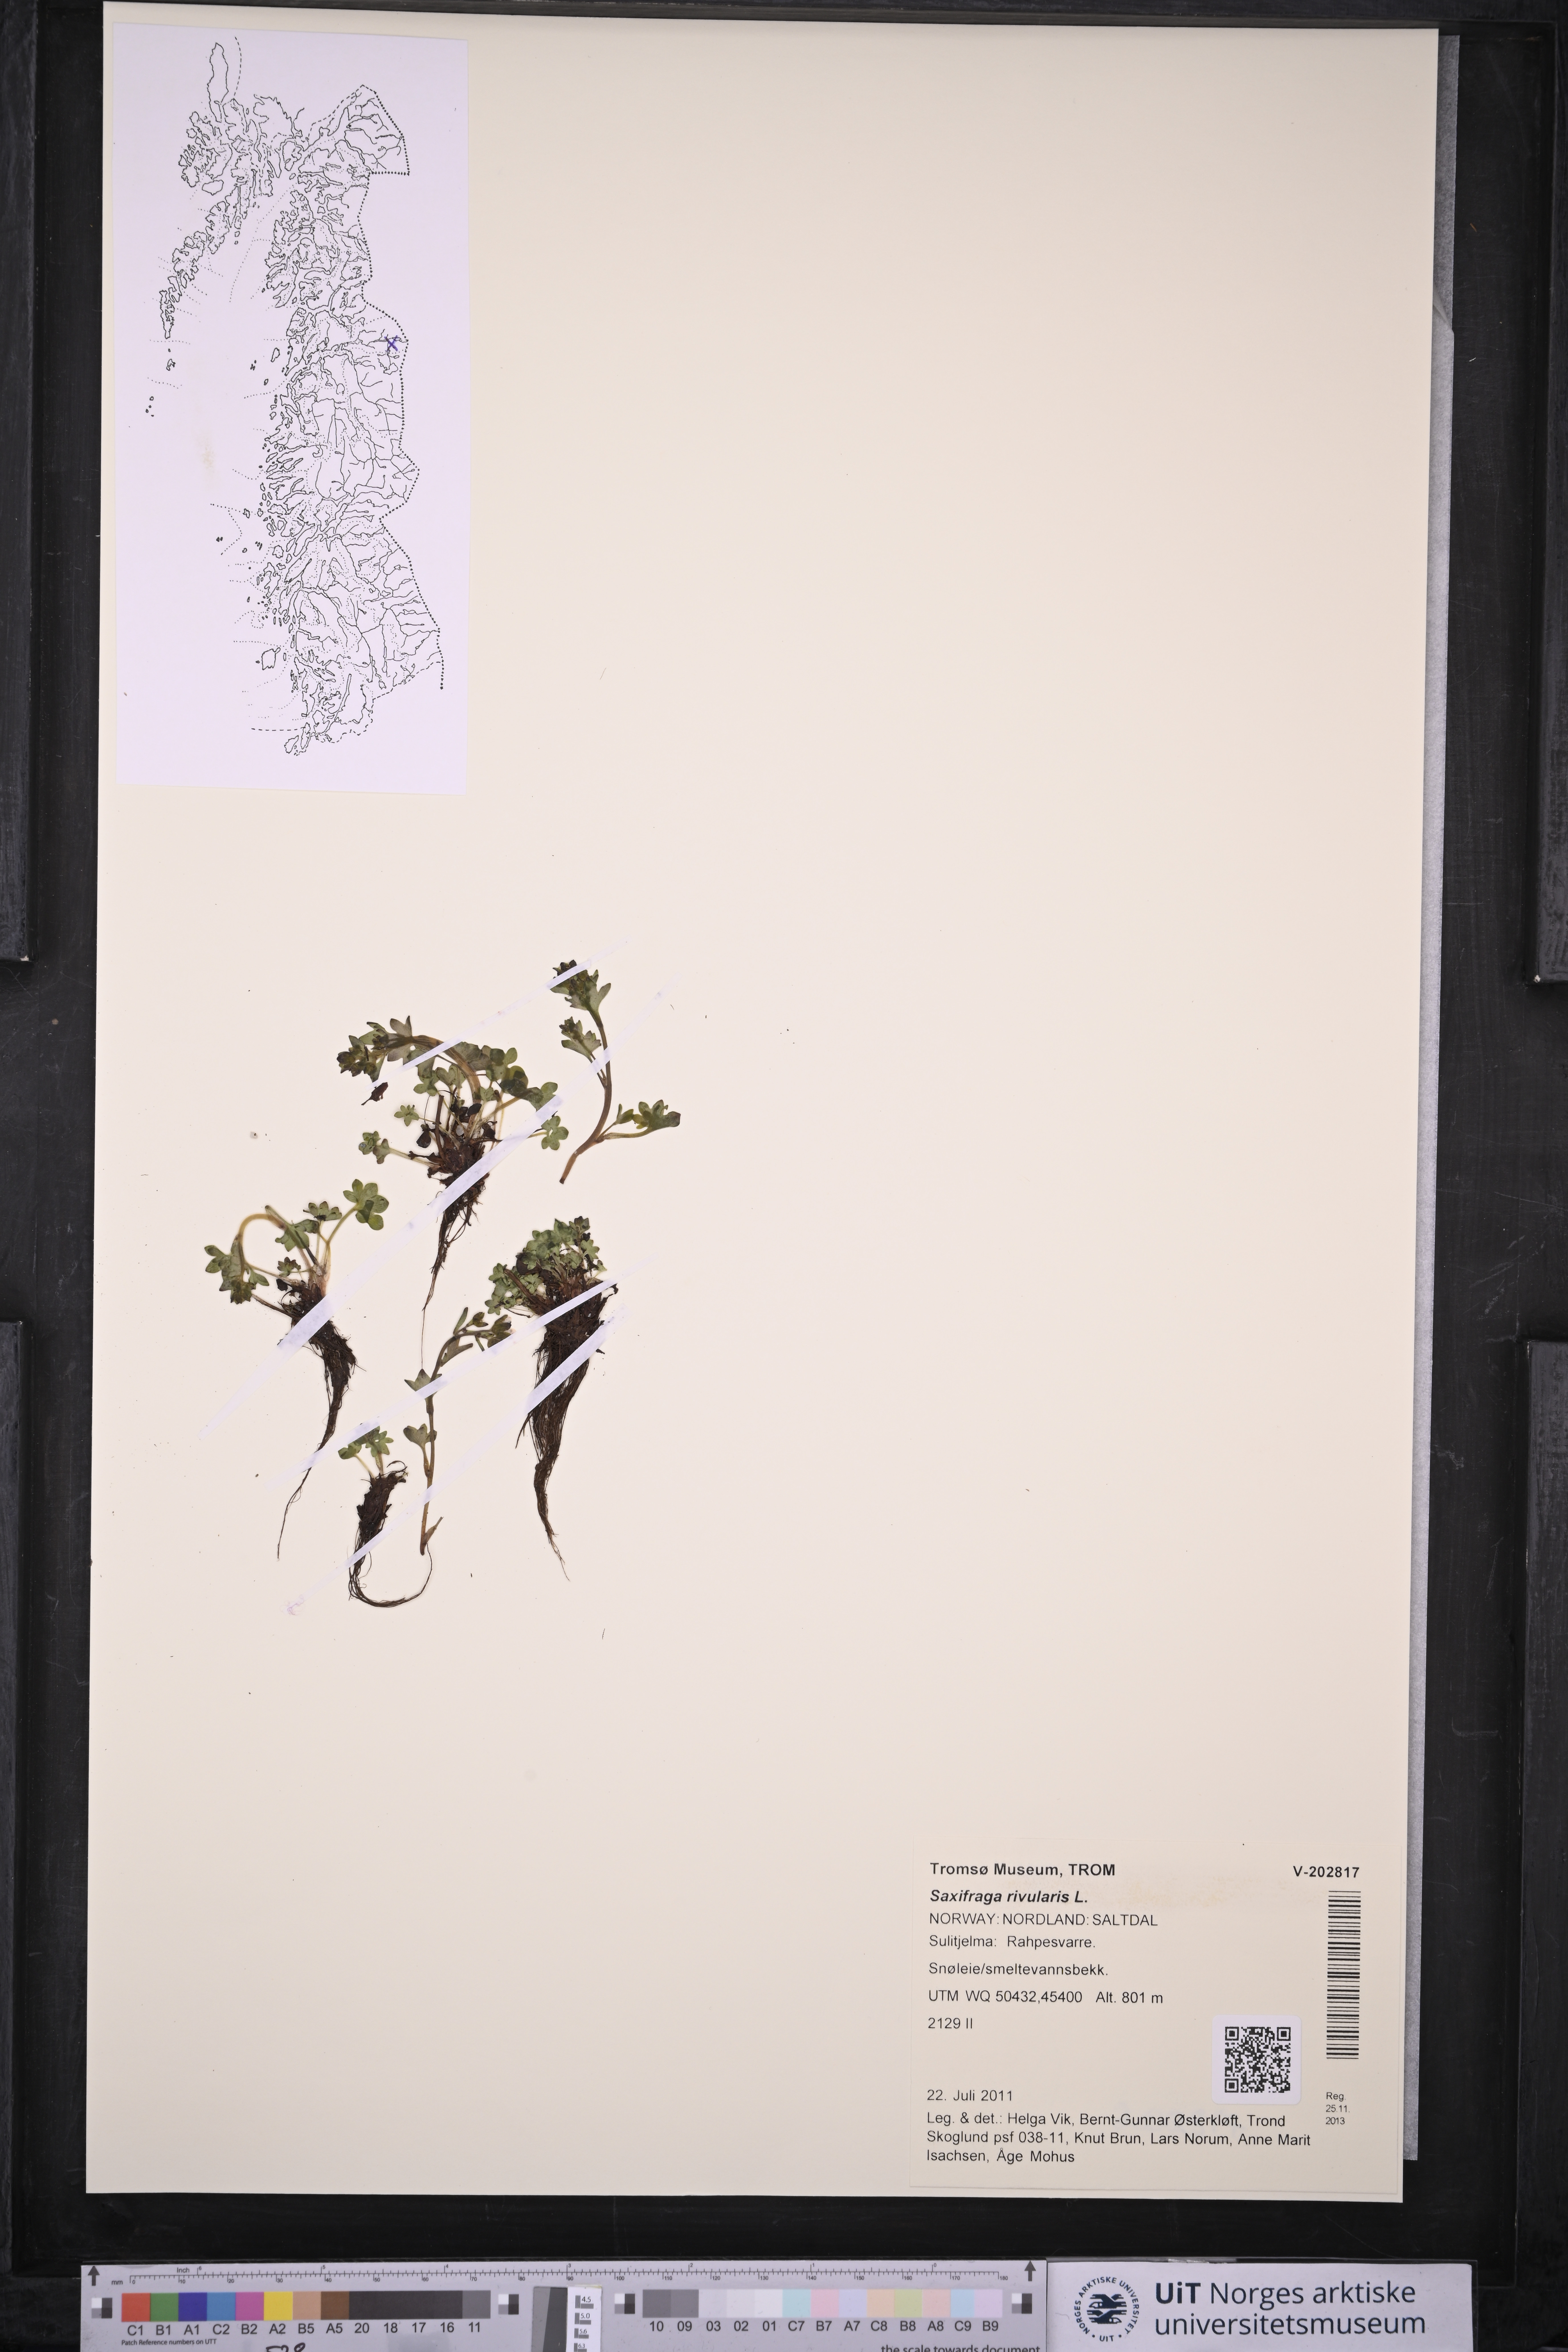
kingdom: Plantae
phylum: Tracheophyta
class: Magnoliopsida
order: Saxifragales
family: Saxifragaceae
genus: Saxifraga
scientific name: Saxifraga rivularis
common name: Highland saxifrage
